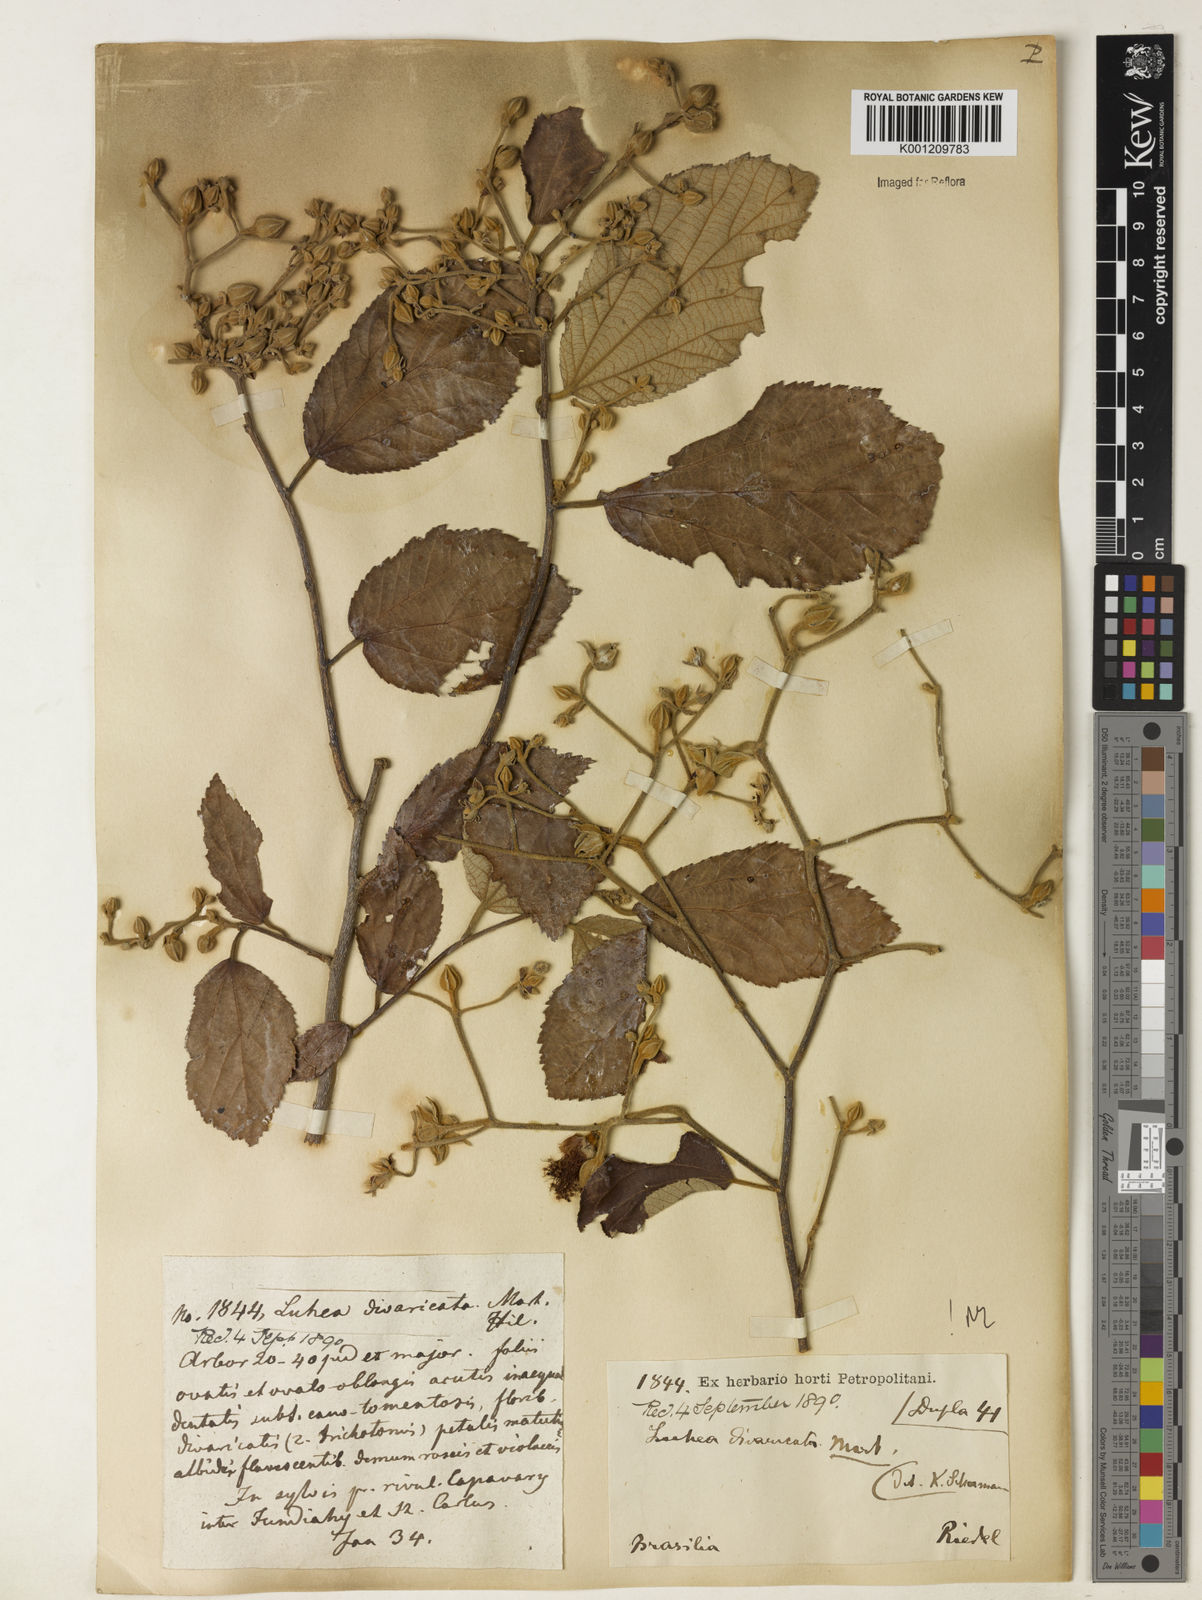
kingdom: Plantae
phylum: Tracheophyta
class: Magnoliopsida
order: Malvales
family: Malvaceae
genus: Luehea
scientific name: Luehea divaricata
